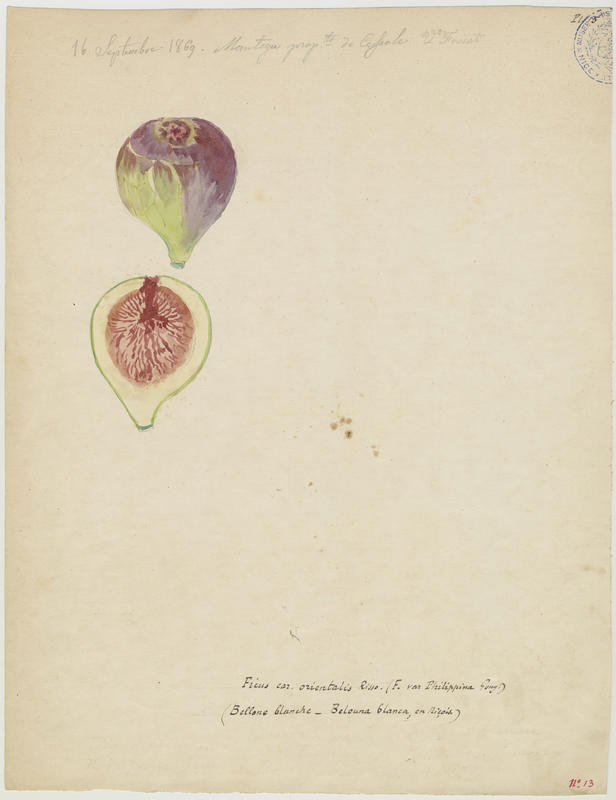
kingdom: Plantae
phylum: Tracheophyta
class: Magnoliopsida
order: Rosales
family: Moraceae
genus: Ficus
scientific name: Ficus carica
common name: Fig
